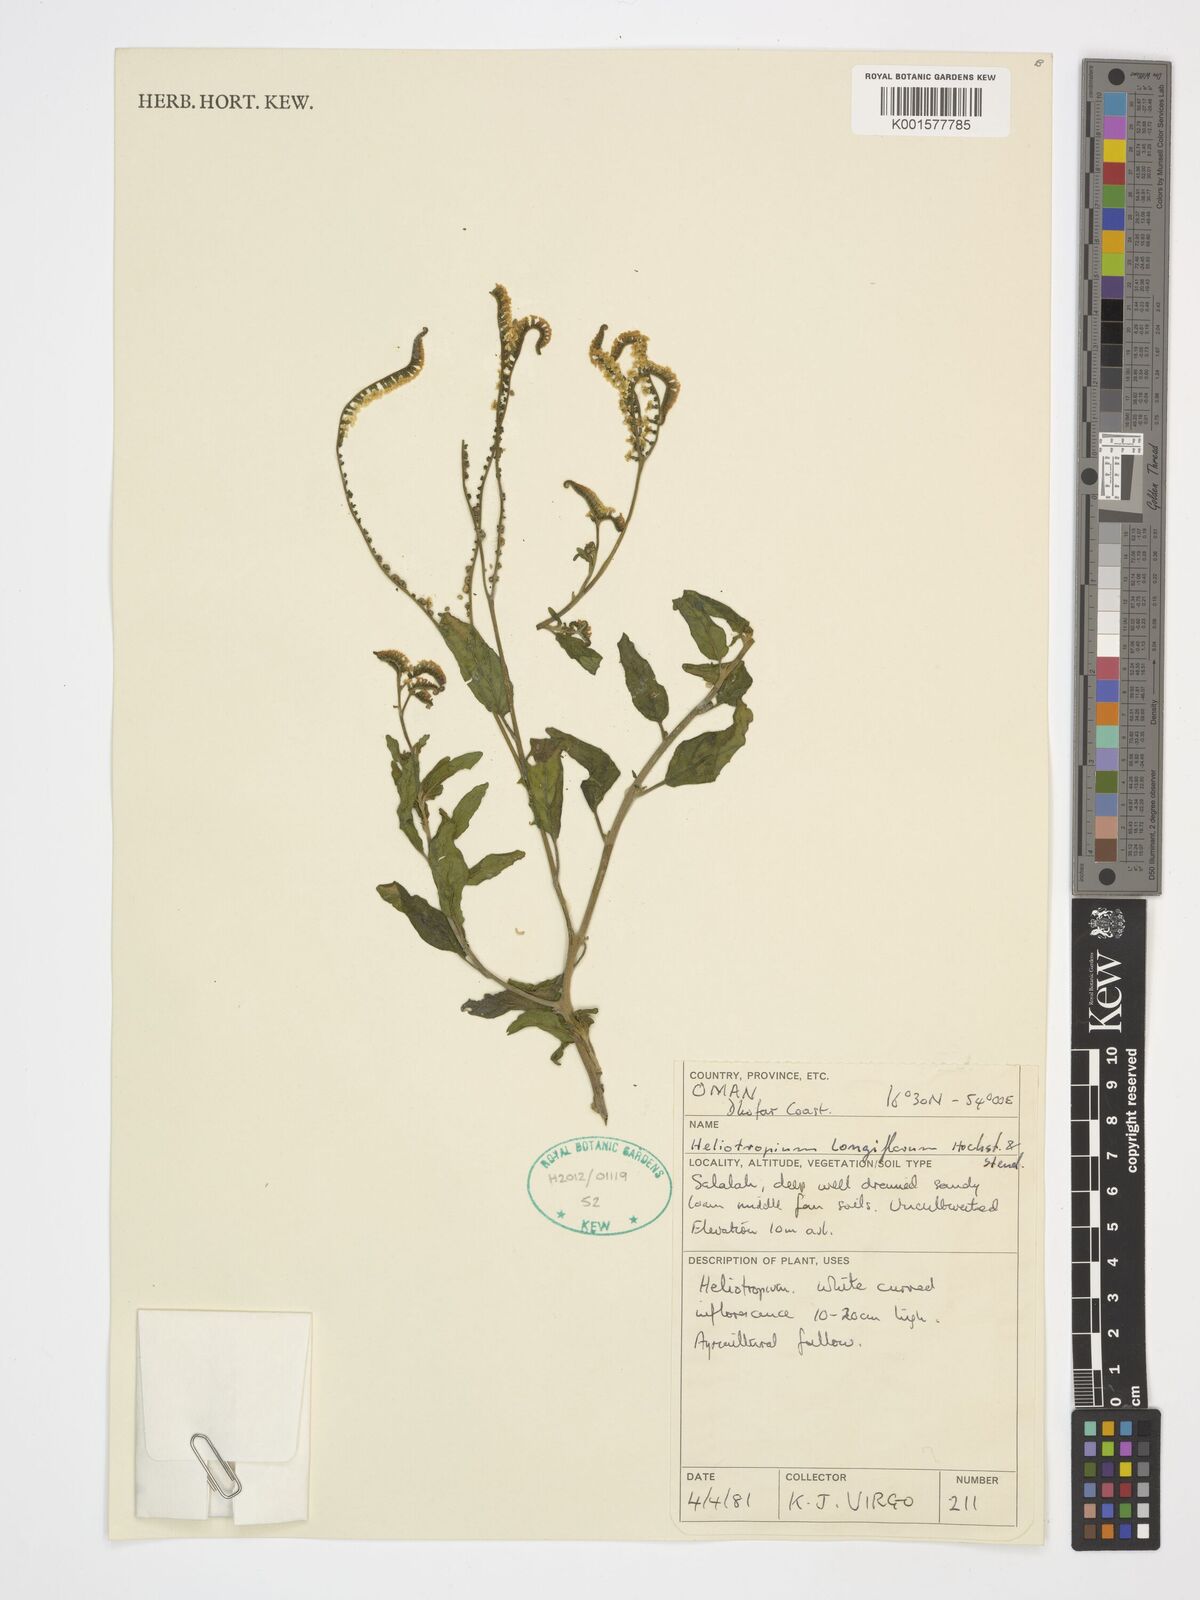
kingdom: Plantae
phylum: Tracheophyta
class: Magnoliopsida
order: Boraginales
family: Heliotropiaceae
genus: Heliotropium
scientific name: Heliotropium longiflorum
